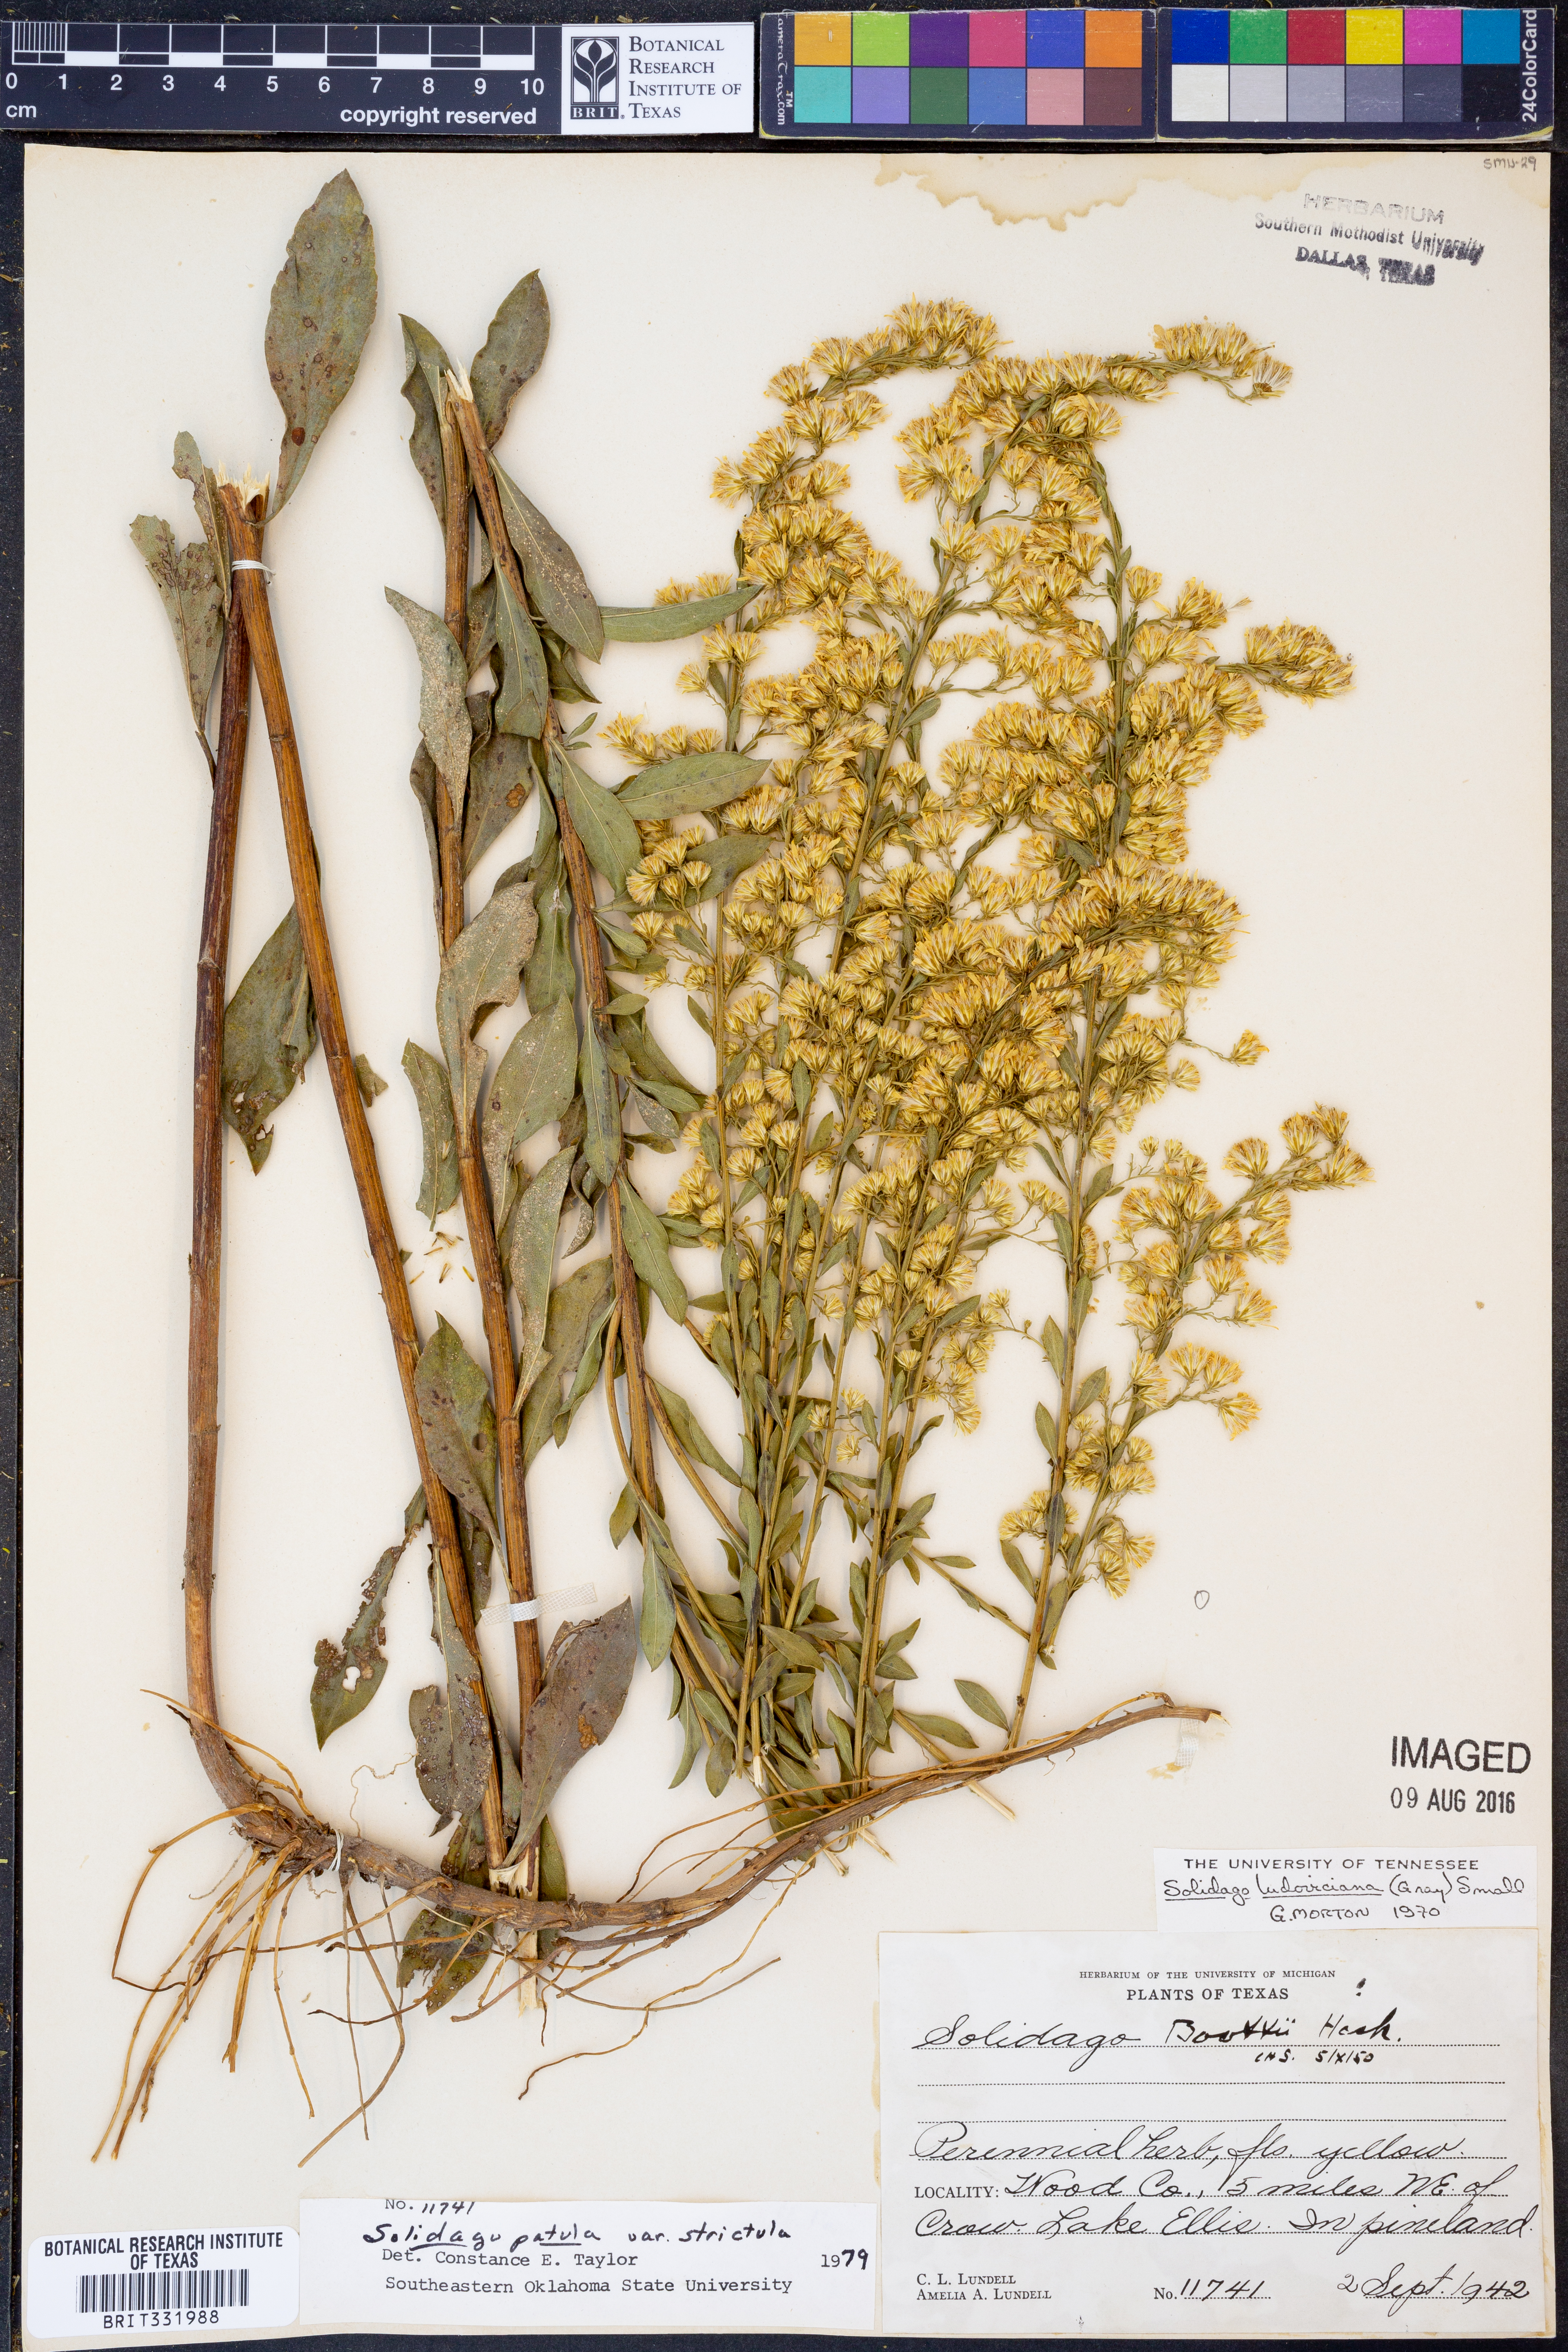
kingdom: Plantae
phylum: Tracheophyta
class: Magnoliopsida
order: Asterales
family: Asteraceae
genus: Solidago
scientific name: Solidago salicina
